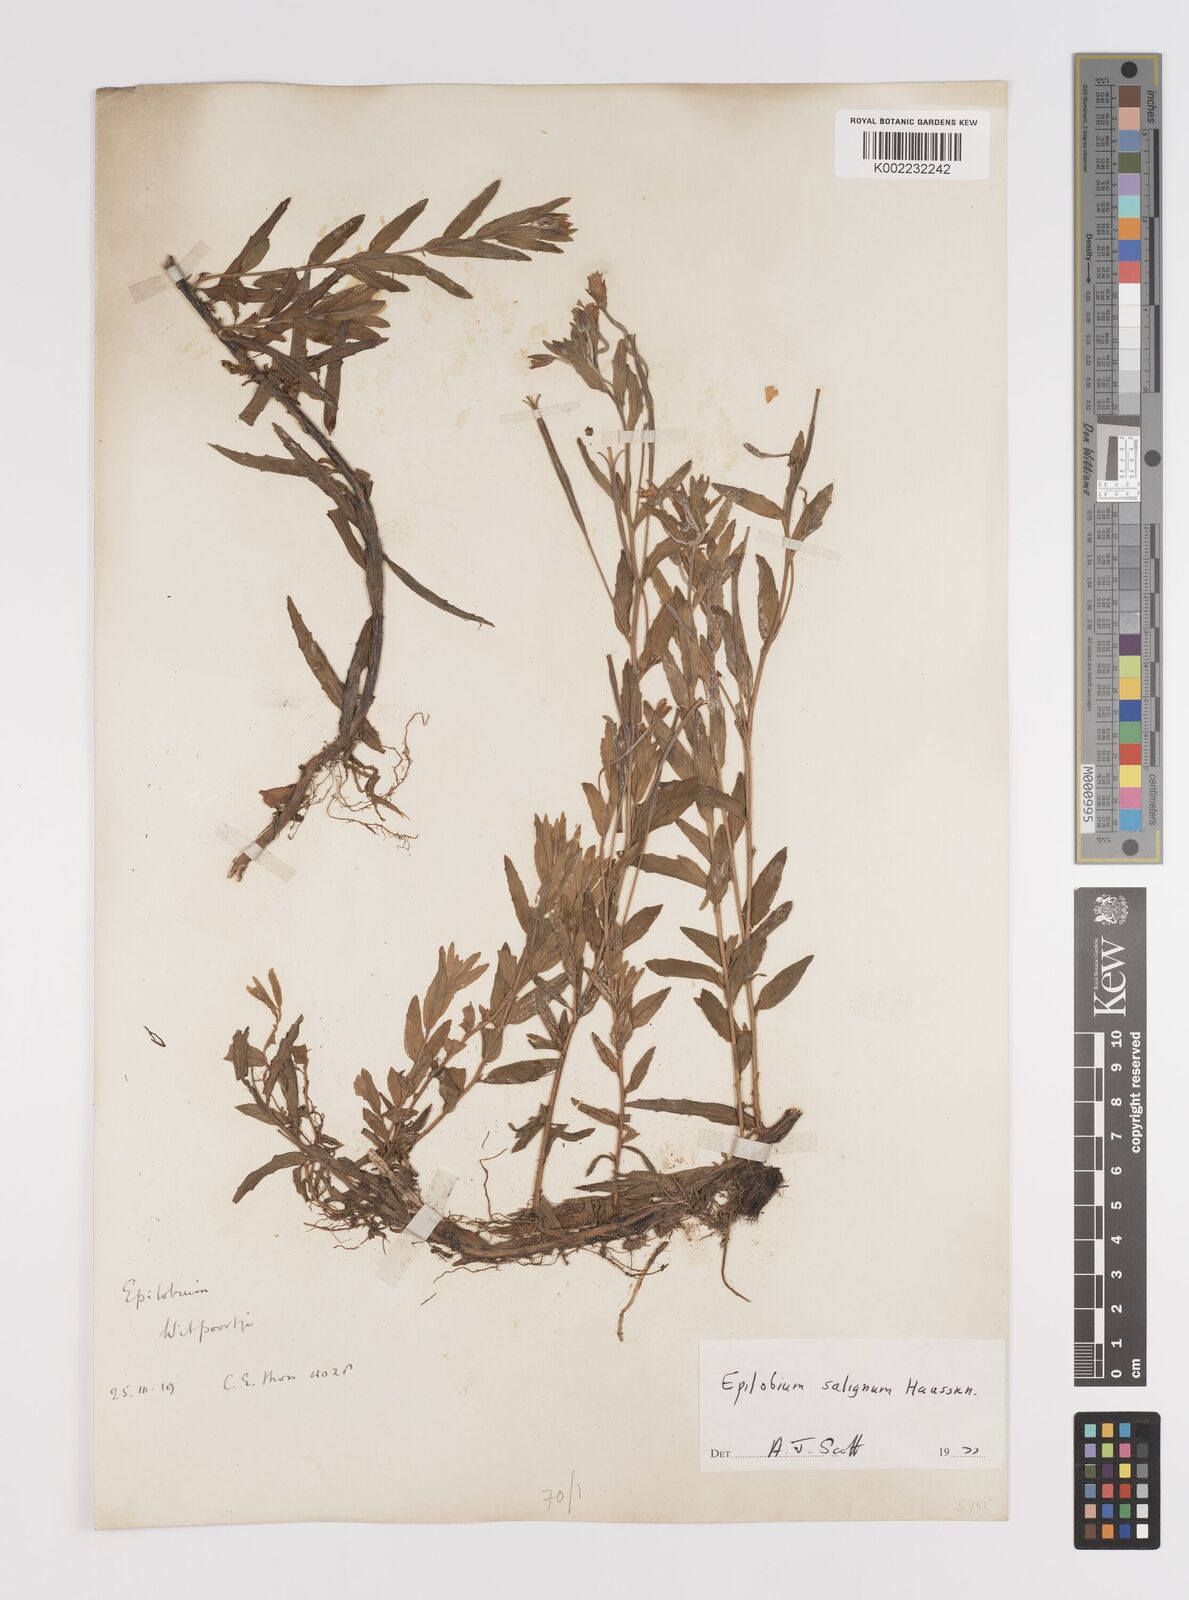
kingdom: Plantae
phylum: Tracheophyta
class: Magnoliopsida
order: Myrtales
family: Onagraceae
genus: Epilobium
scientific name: Epilobium salignum
